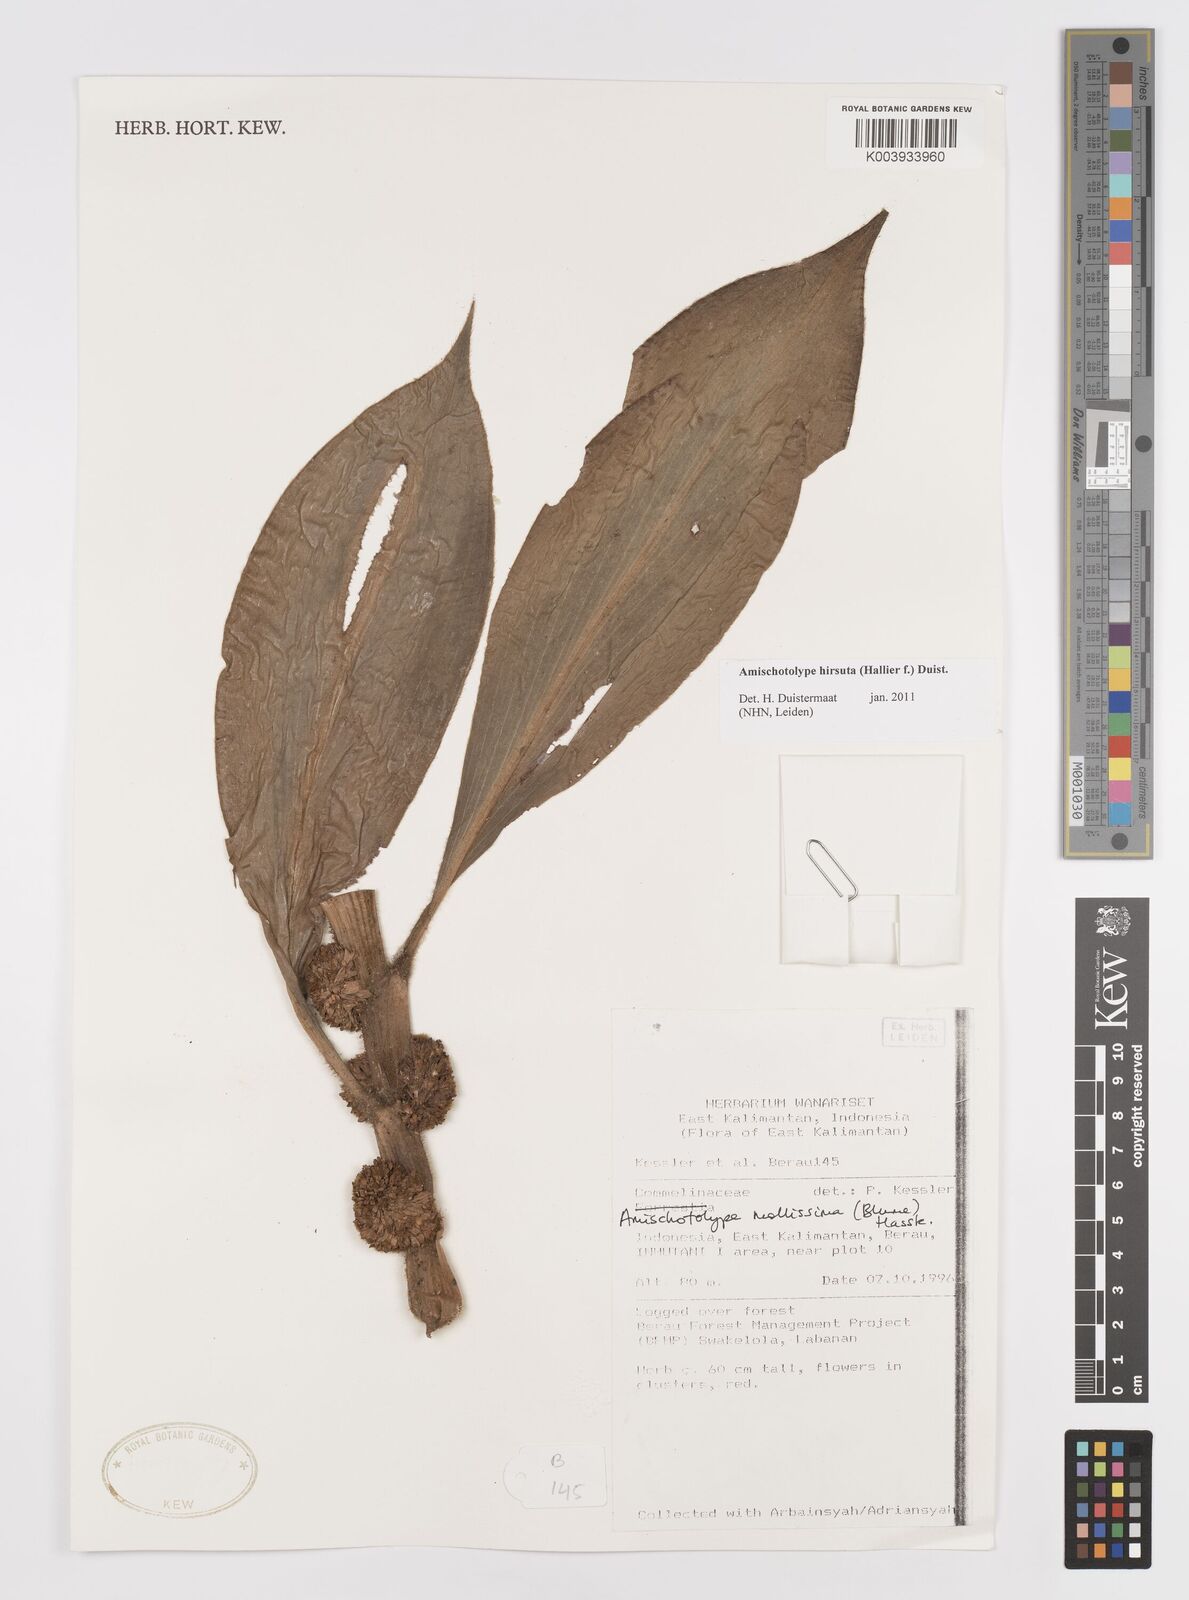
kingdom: Plantae
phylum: Tracheophyta
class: Liliopsida
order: Commelinales
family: Commelinaceae
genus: Amischotolype
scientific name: Amischotolype hirsuta
